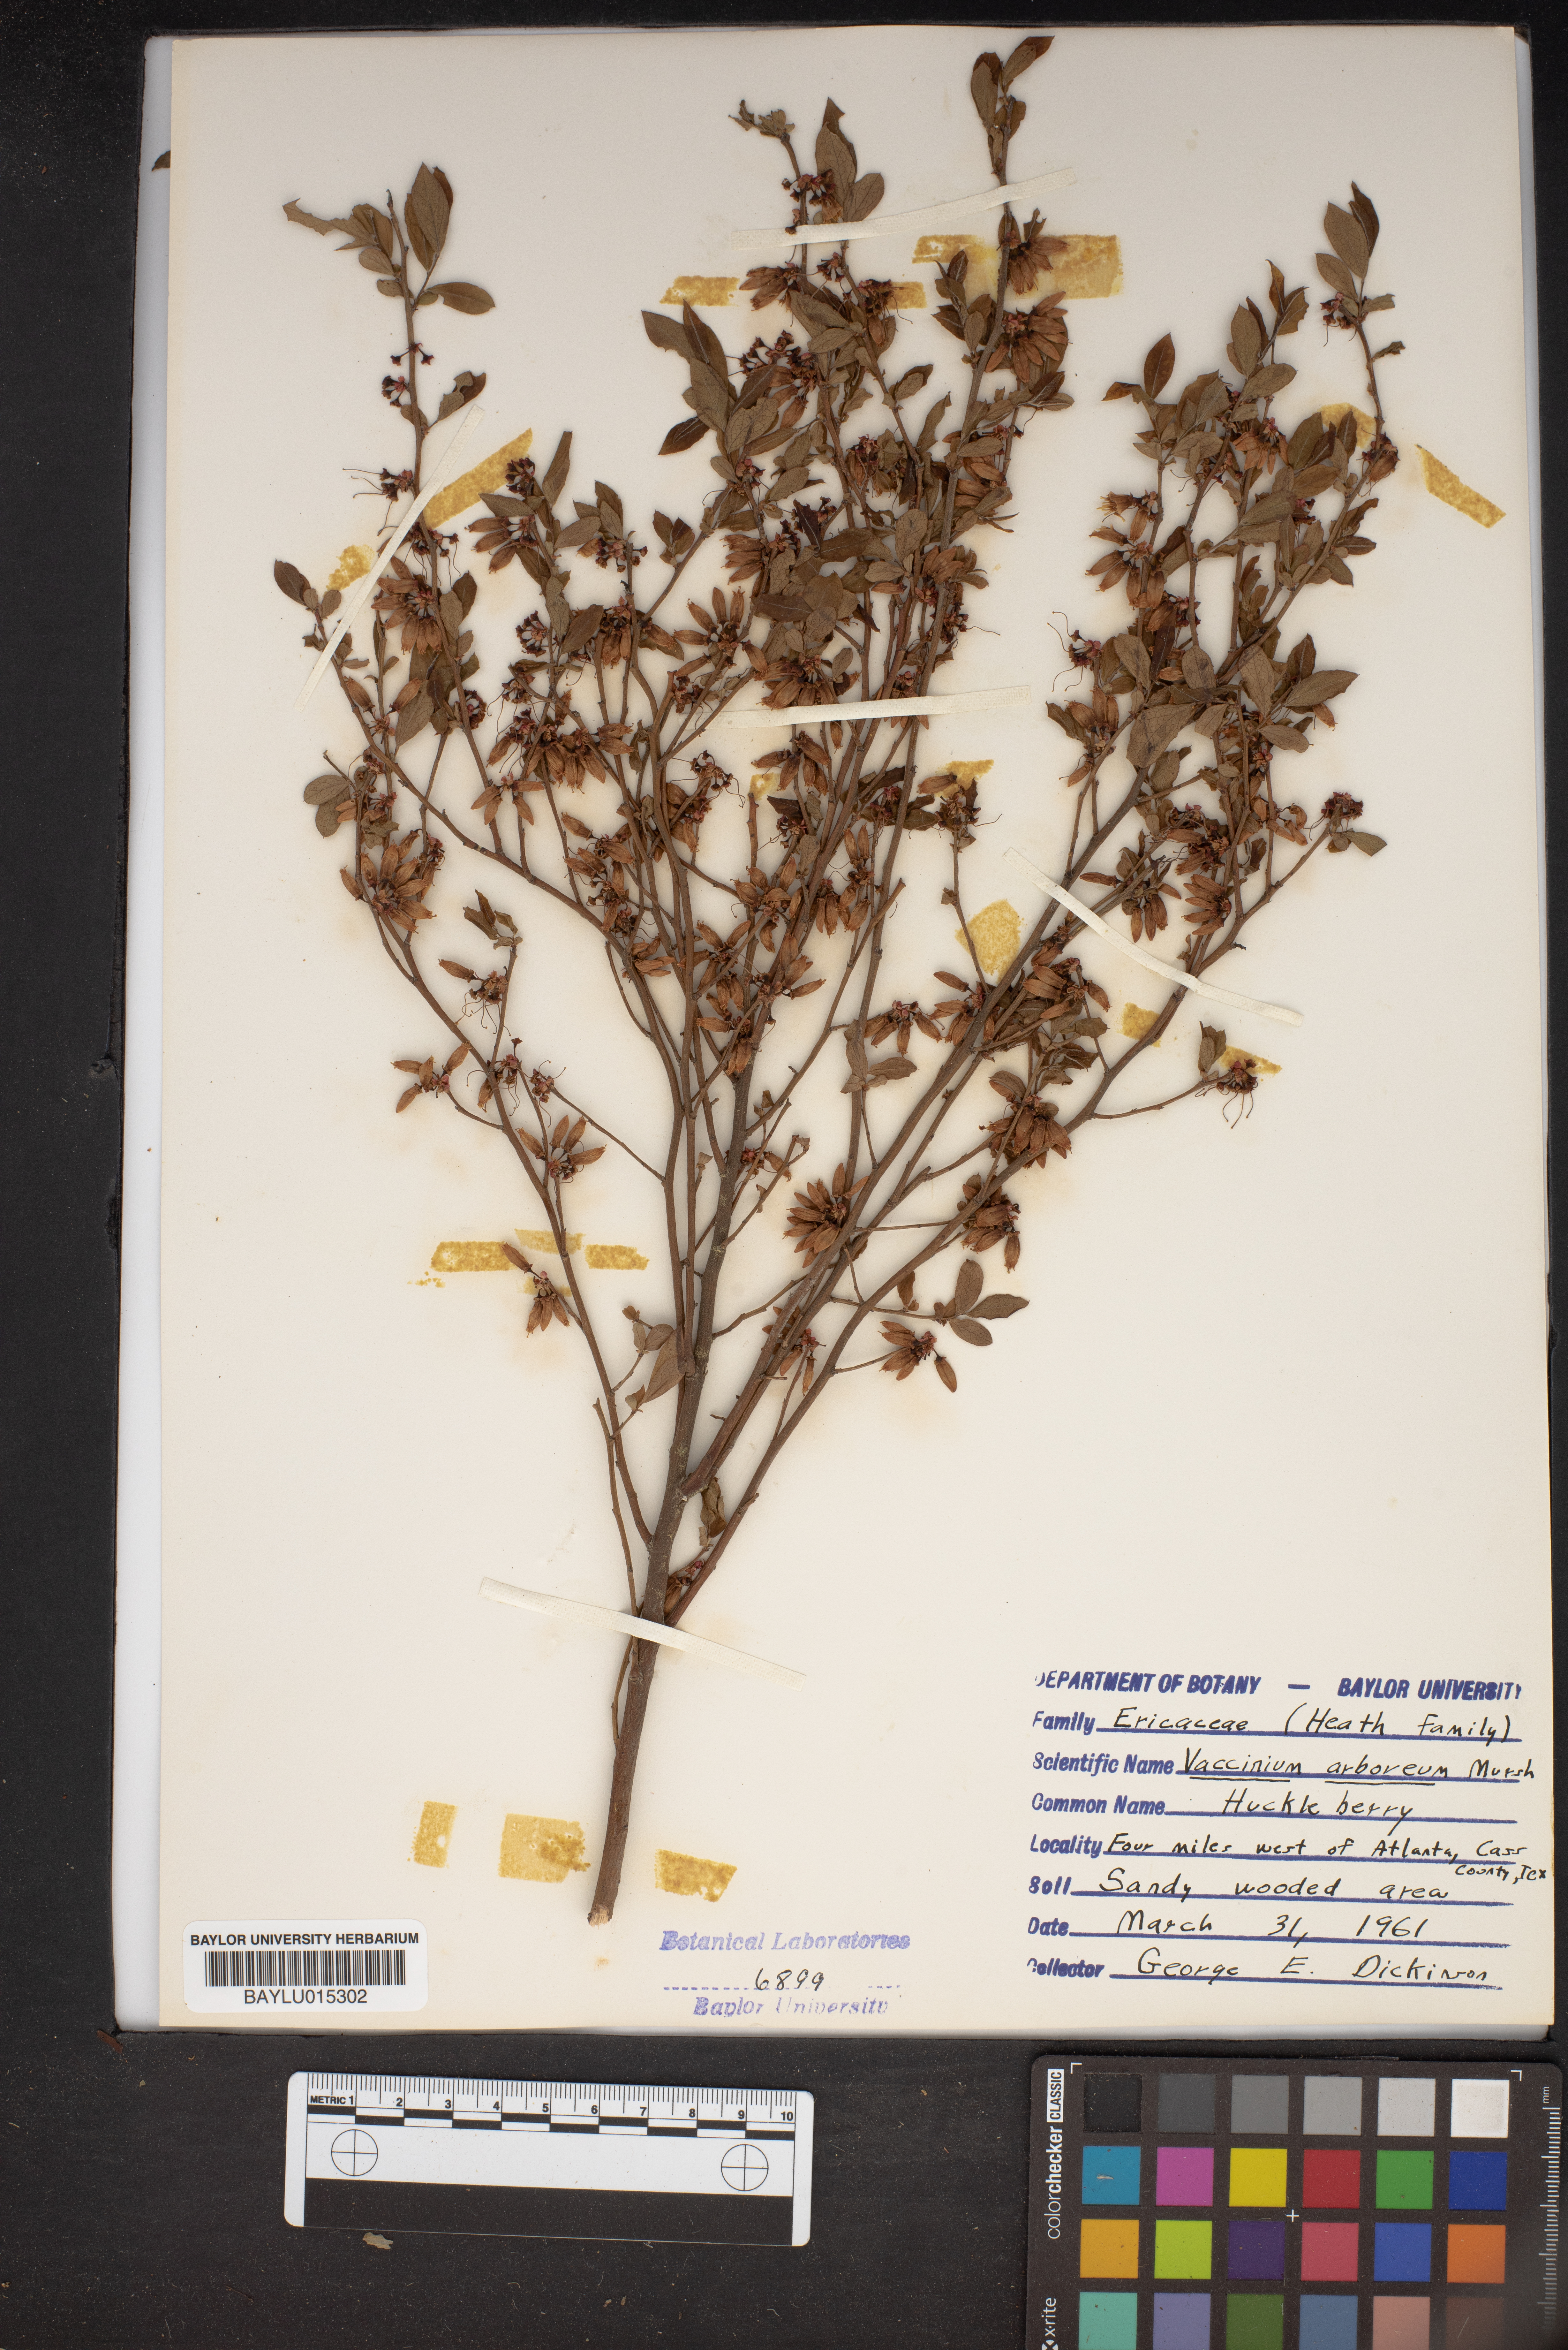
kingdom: Plantae
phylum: Tracheophyta
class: Magnoliopsida
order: Ericales
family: Ericaceae
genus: Vaccinium
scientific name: Vaccinium arboreum
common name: Farkleberry
